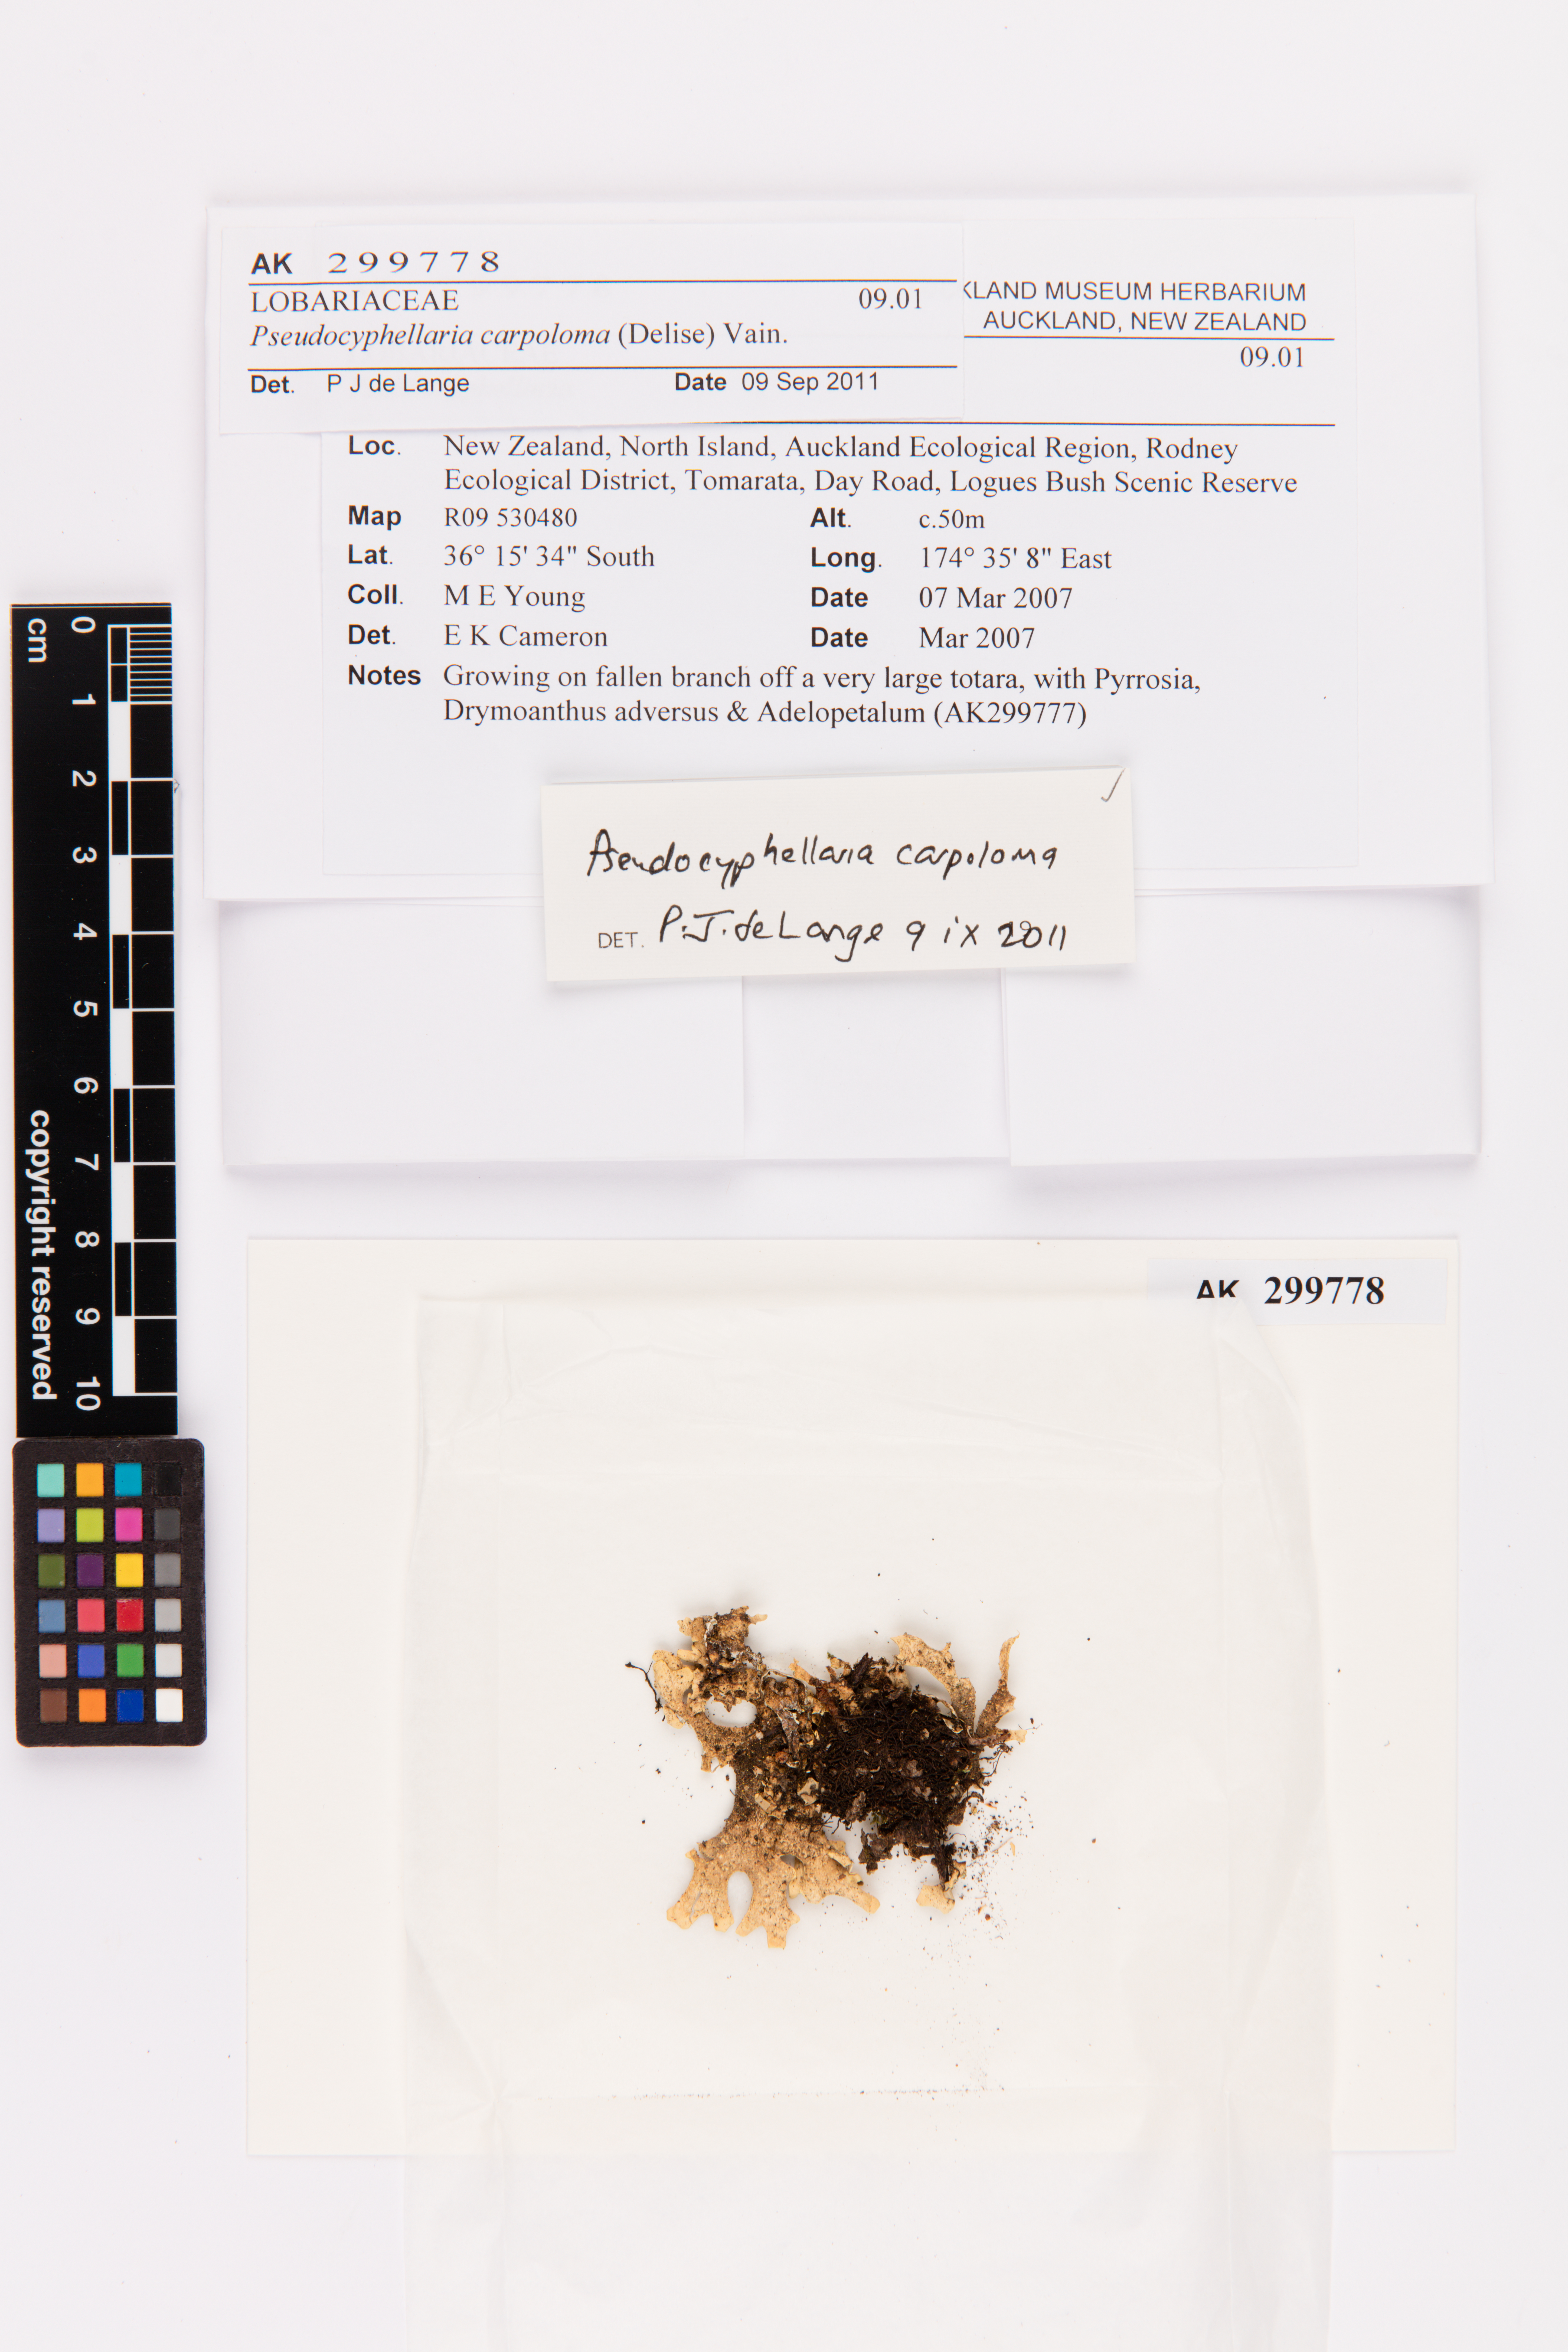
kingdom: Fungi
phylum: Ascomycota
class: Lecanoromycetes
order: Peltigerales
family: Lobariaceae
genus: Pseudocyphellaria
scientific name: Pseudocyphellaria carpoloma
